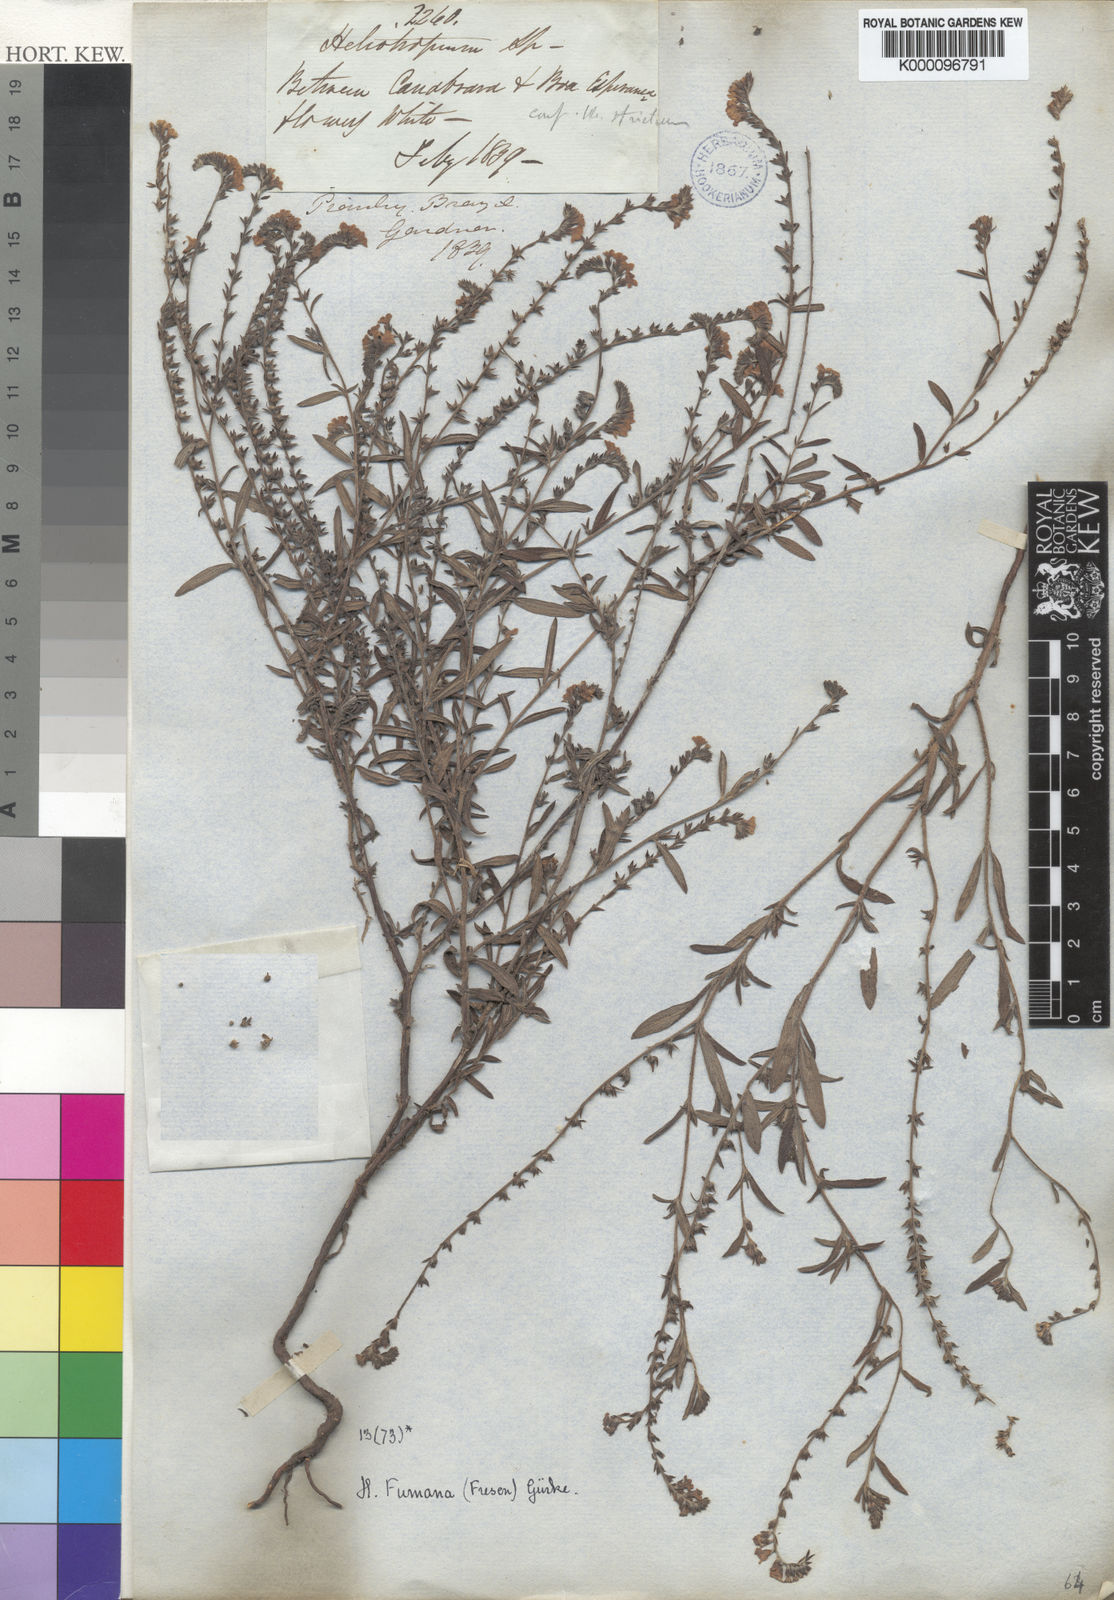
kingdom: Plantae
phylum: Tracheophyta
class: Magnoliopsida
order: Boraginales
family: Heliotropiaceae
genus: Heliotropium
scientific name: Heliotropium
